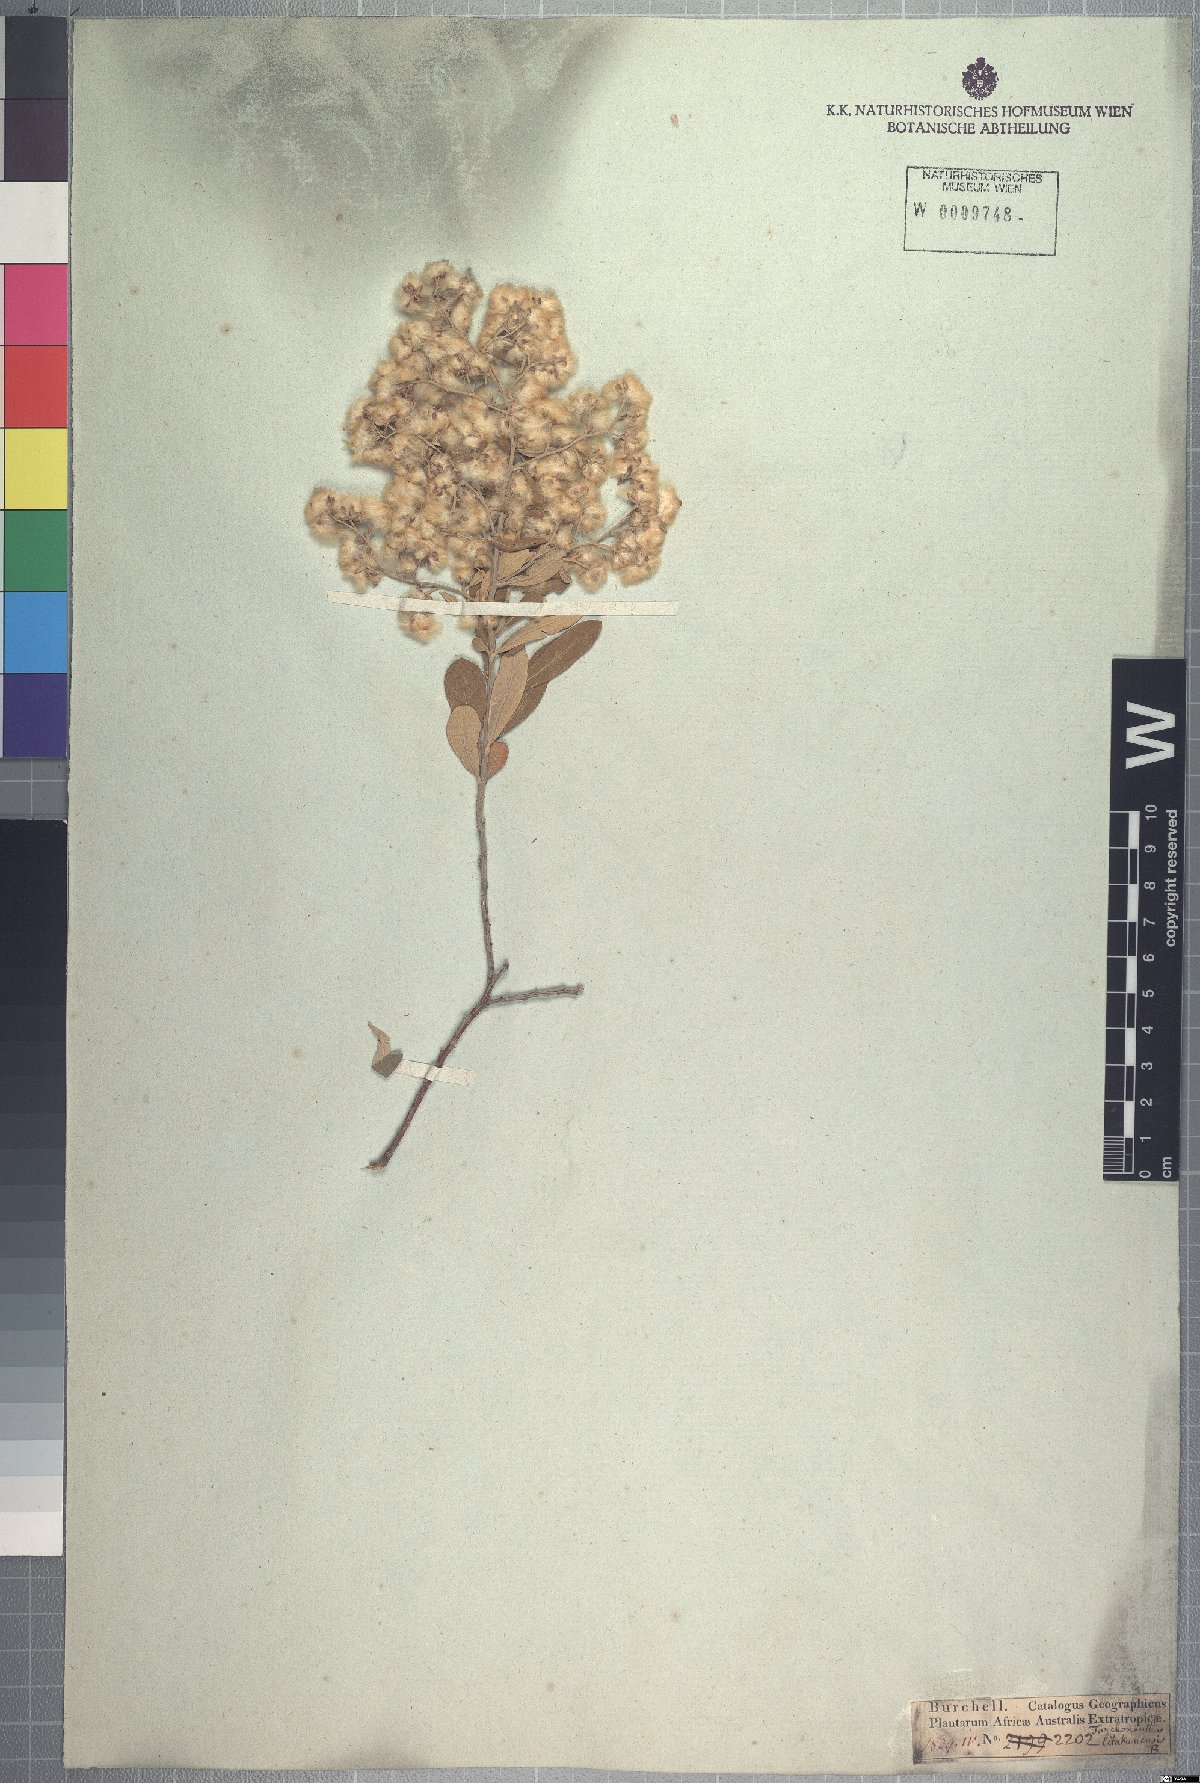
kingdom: Plantae
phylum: Tracheophyta
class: Magnoliopsida
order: Asterales
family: Asteraceae
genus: Tarchonanthus
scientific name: Tarchonanthus camphoratus
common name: Camphorwood
